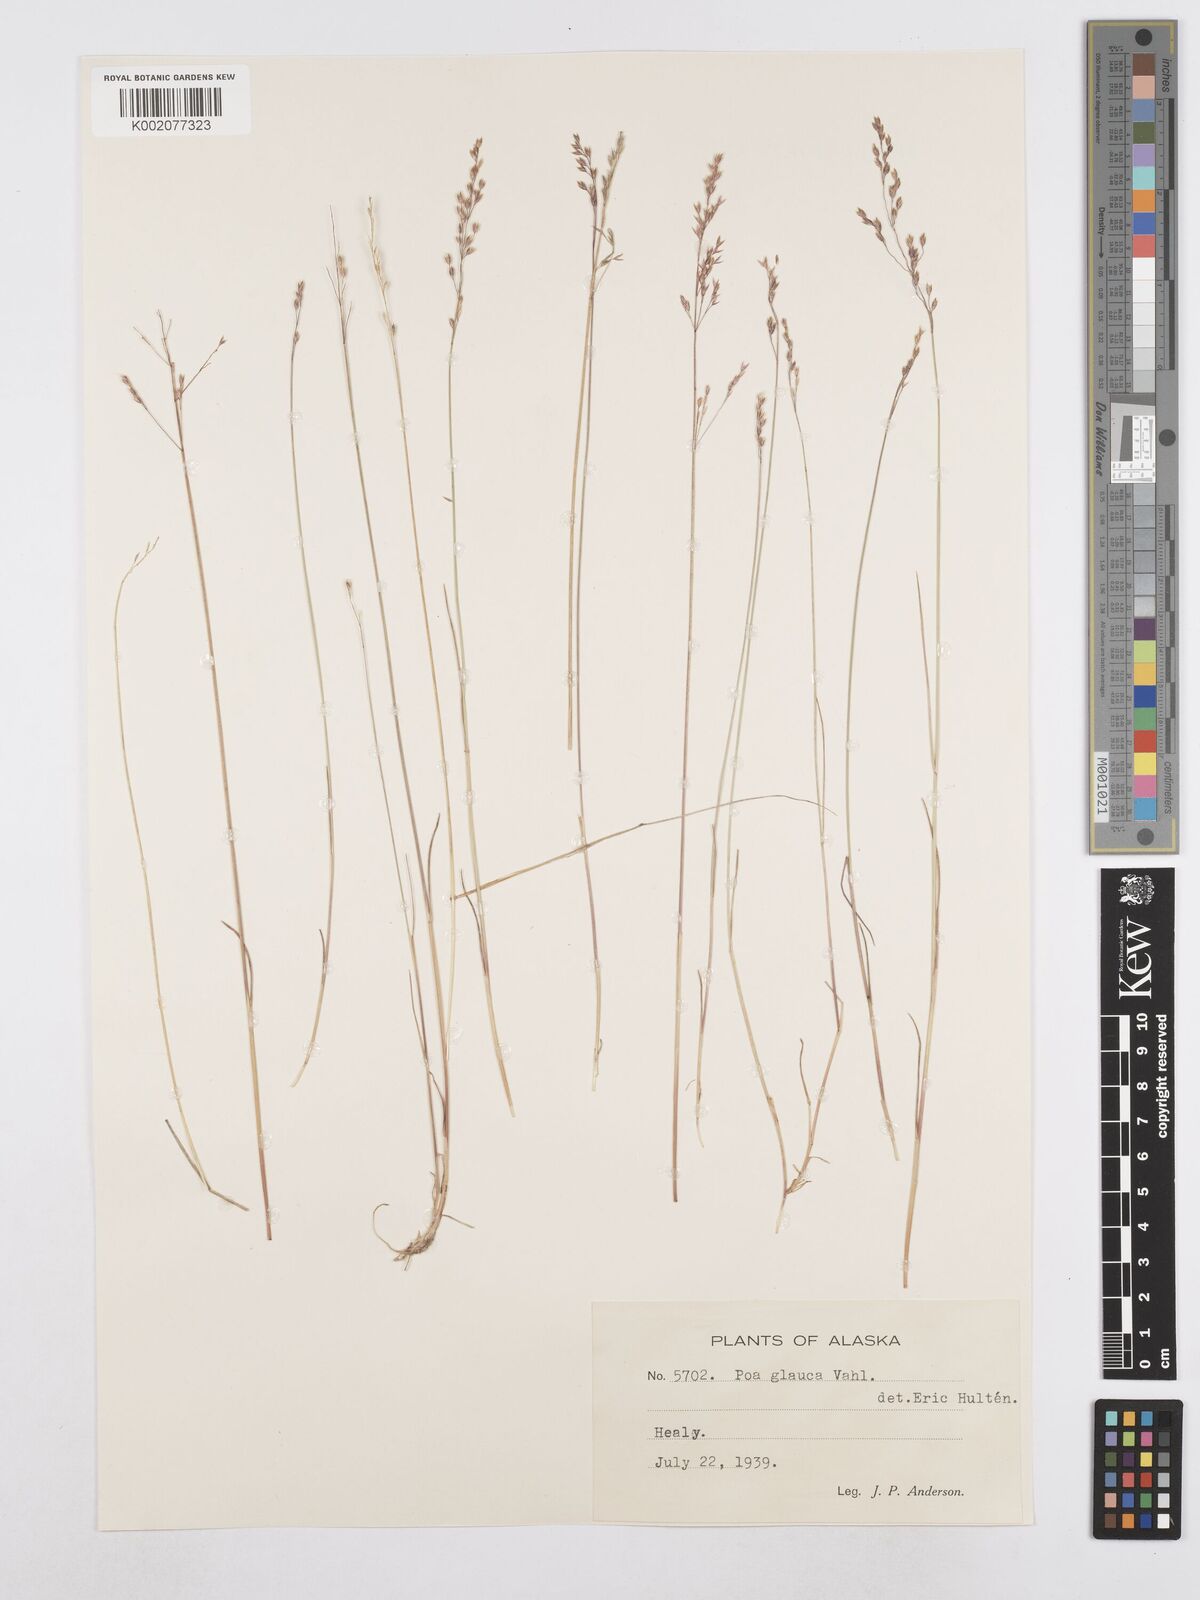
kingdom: Plantae
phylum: Tracheophyta
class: Liliopsida
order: Poales
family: Poaceae
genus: Poa
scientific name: Poa glauca
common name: Glaucous bluegrass
